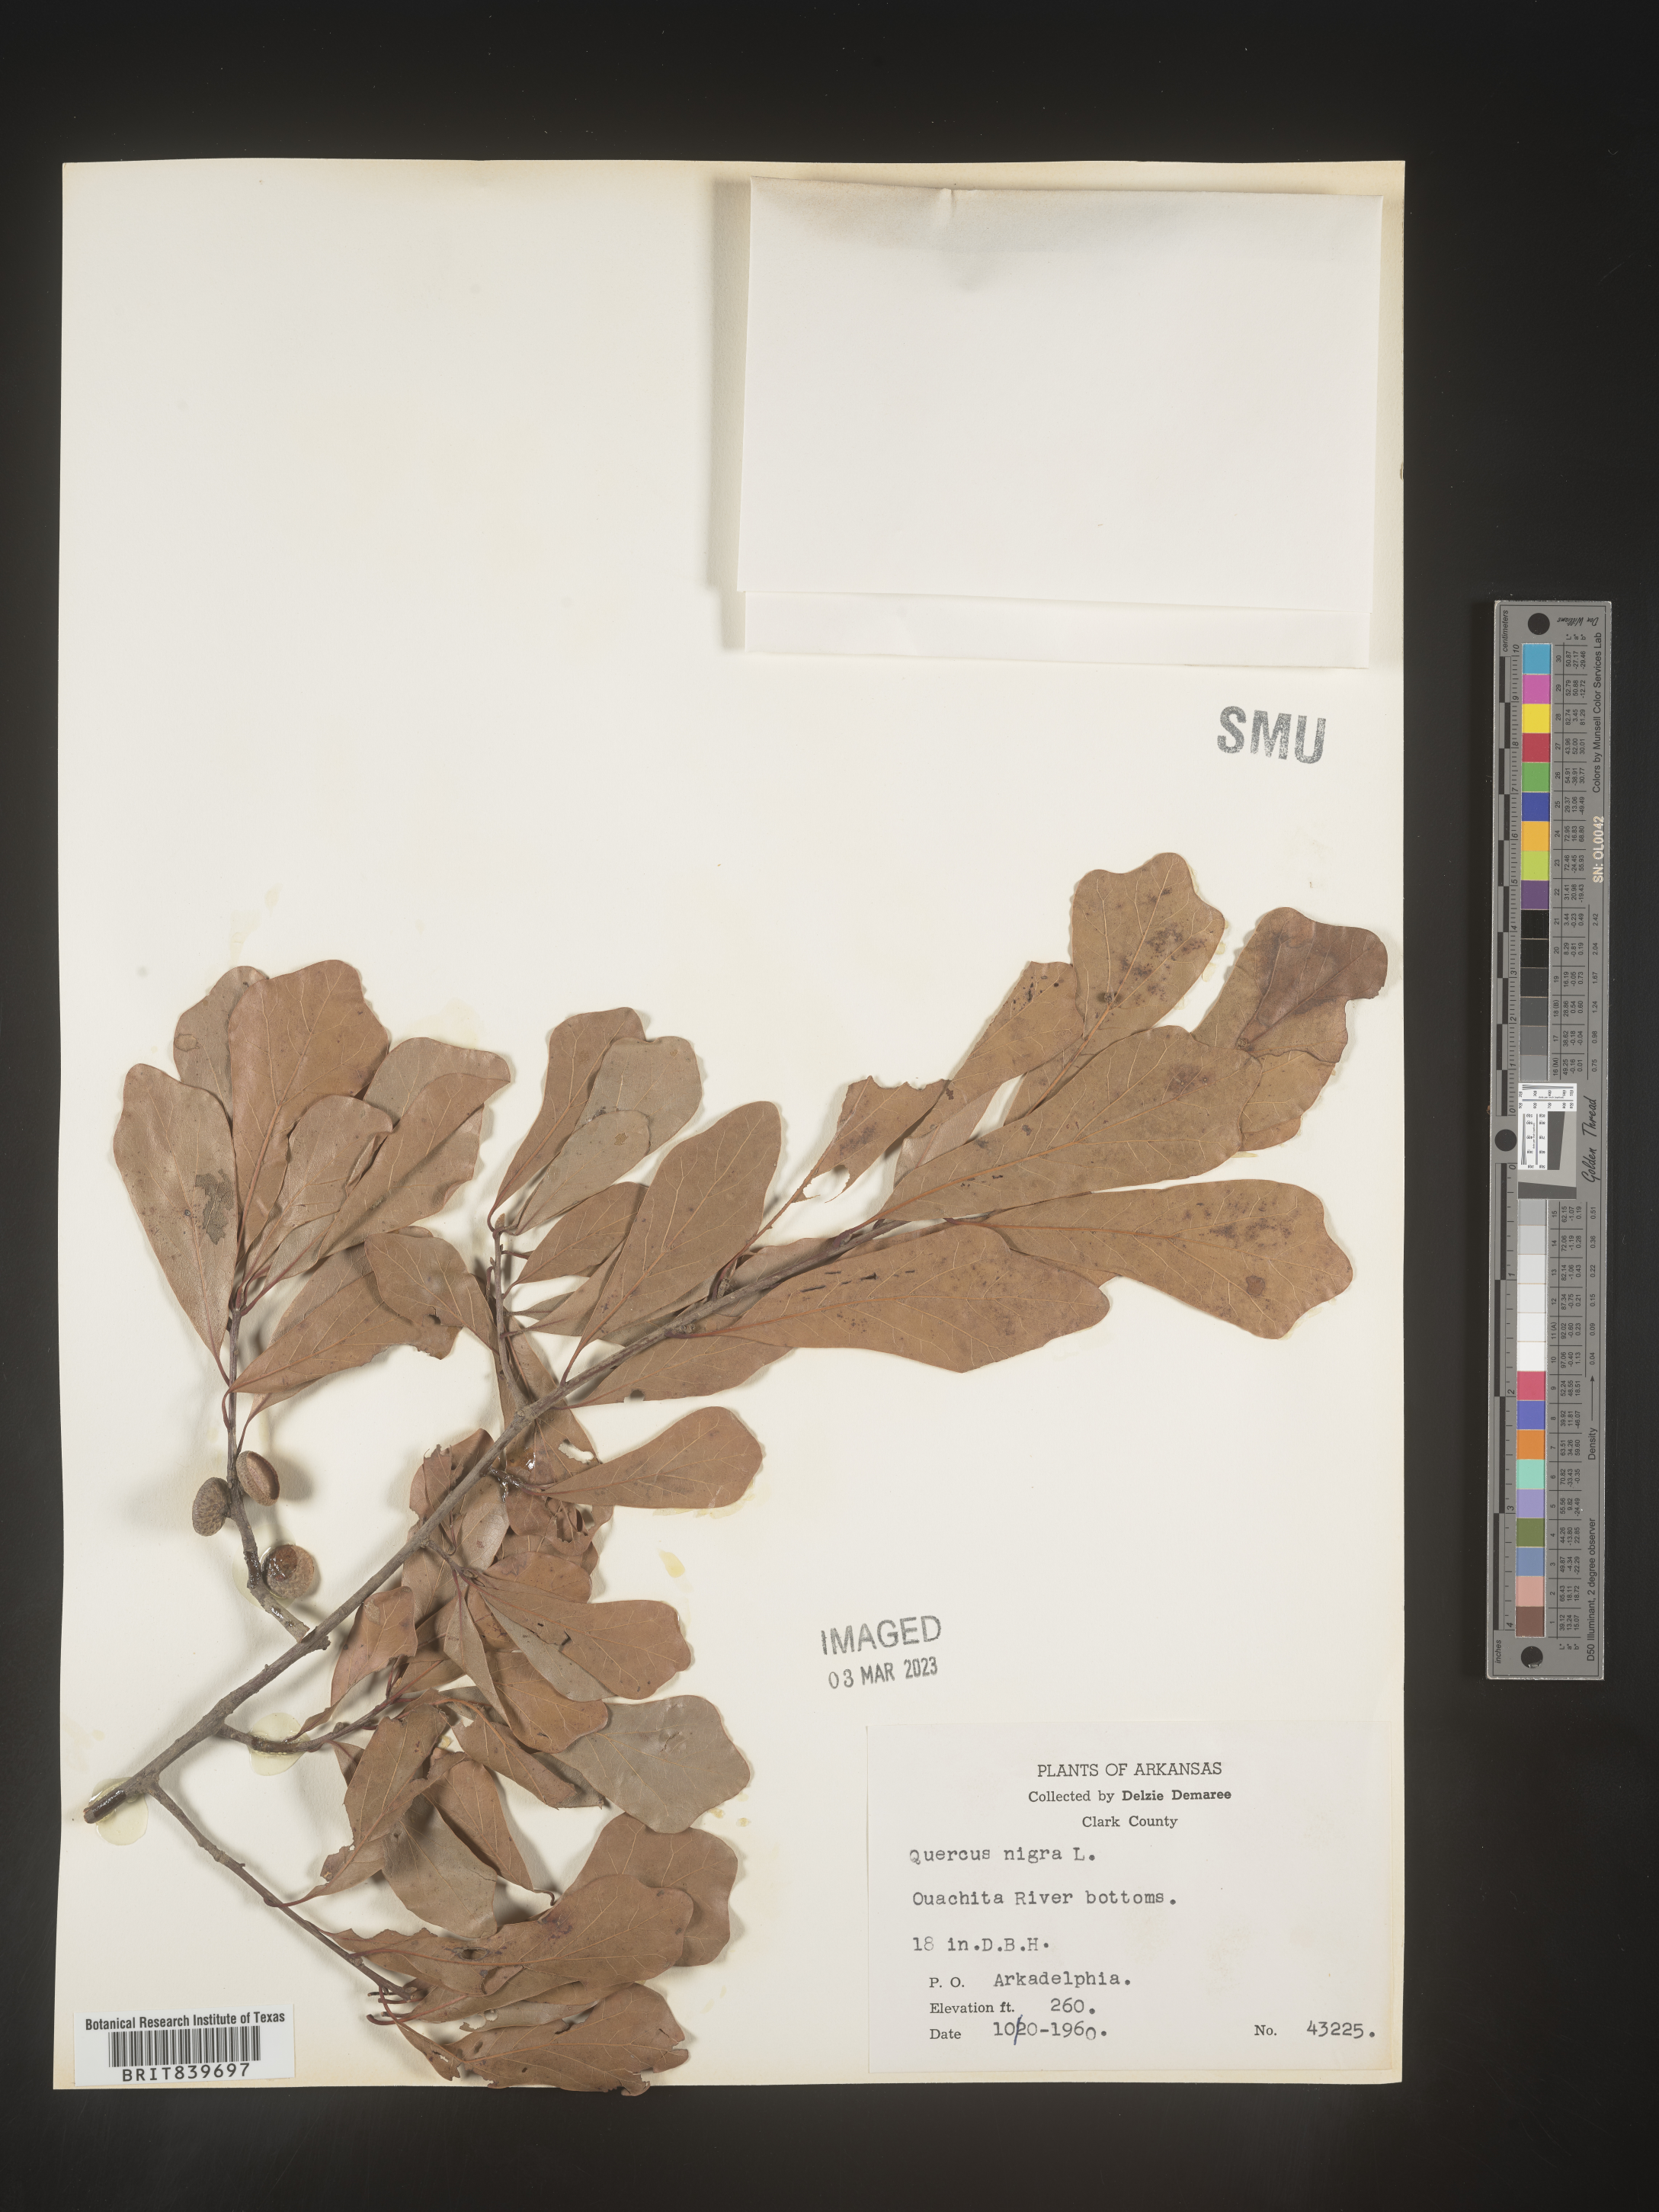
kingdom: Plantae
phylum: Tracheophyta
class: Magnoliopsida
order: Fagales
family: Fagaceae
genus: Quercus
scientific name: Quercus nigra
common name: Water oak
